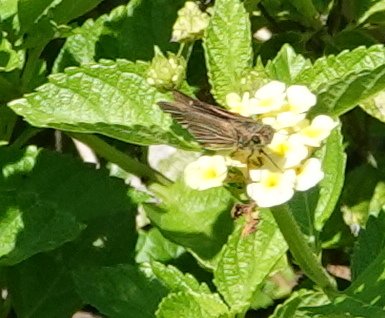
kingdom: Animalia
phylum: Arthropoda
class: Insecta
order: Lepidoptera
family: Hesperiidae
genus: Panoquina
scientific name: Panoquina ocola
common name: Ocola Skipper
